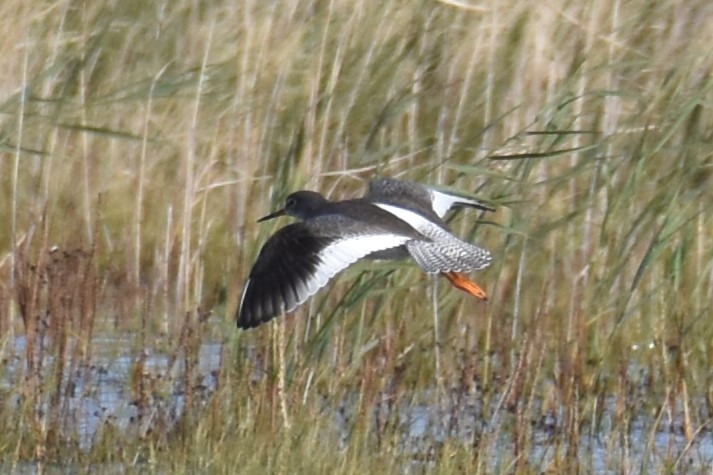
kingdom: Animalia
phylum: Chordata
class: Aves
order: Charadriiformes
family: Scolopacidae
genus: Tringa
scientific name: Tringa totanus
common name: Rødben
